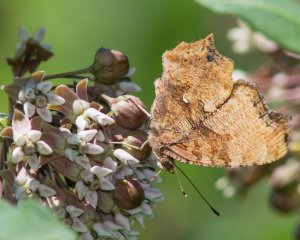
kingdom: Animalia
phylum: Arthropoda
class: Insecta
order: Lepidoptera
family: Nymphalidae
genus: Polygonia
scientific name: Polygonia comma
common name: Eastern Comma
